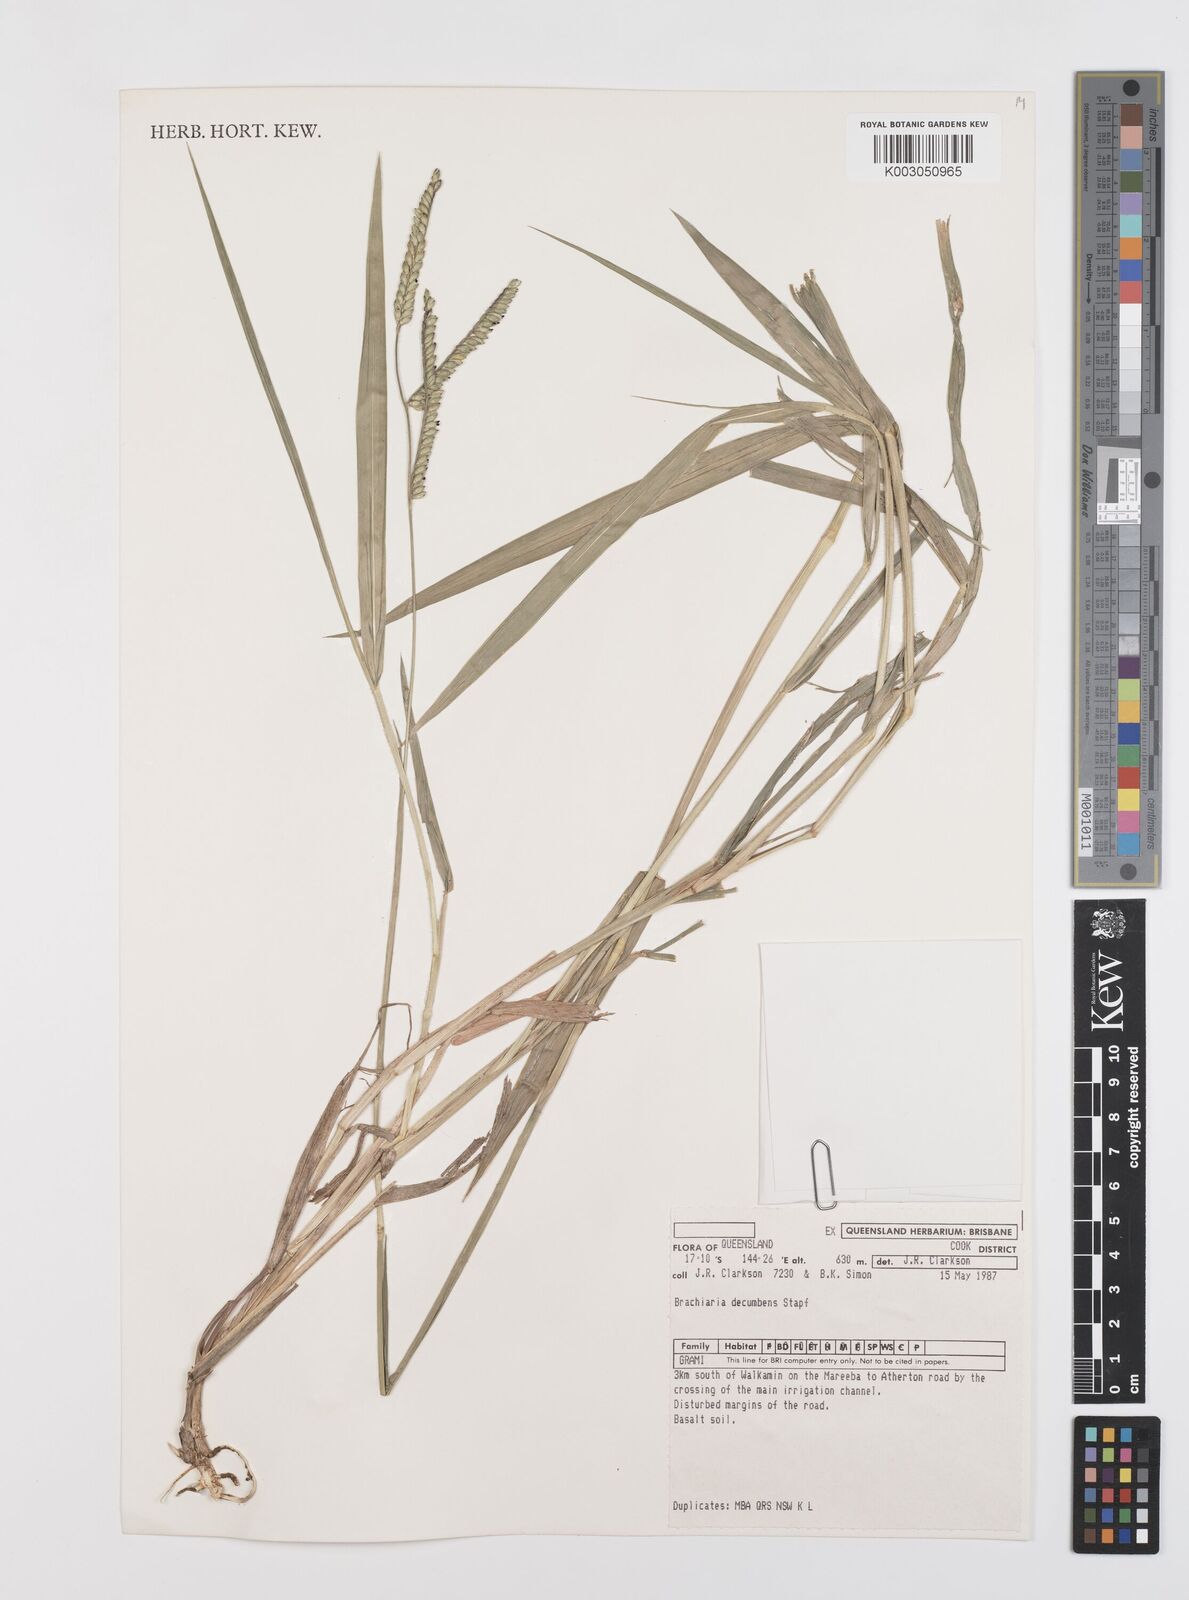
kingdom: Plantae
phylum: Tracheophyta
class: Liliopsida
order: Poales
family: Poaceae
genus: Urochloa
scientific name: Urochloa eminii
